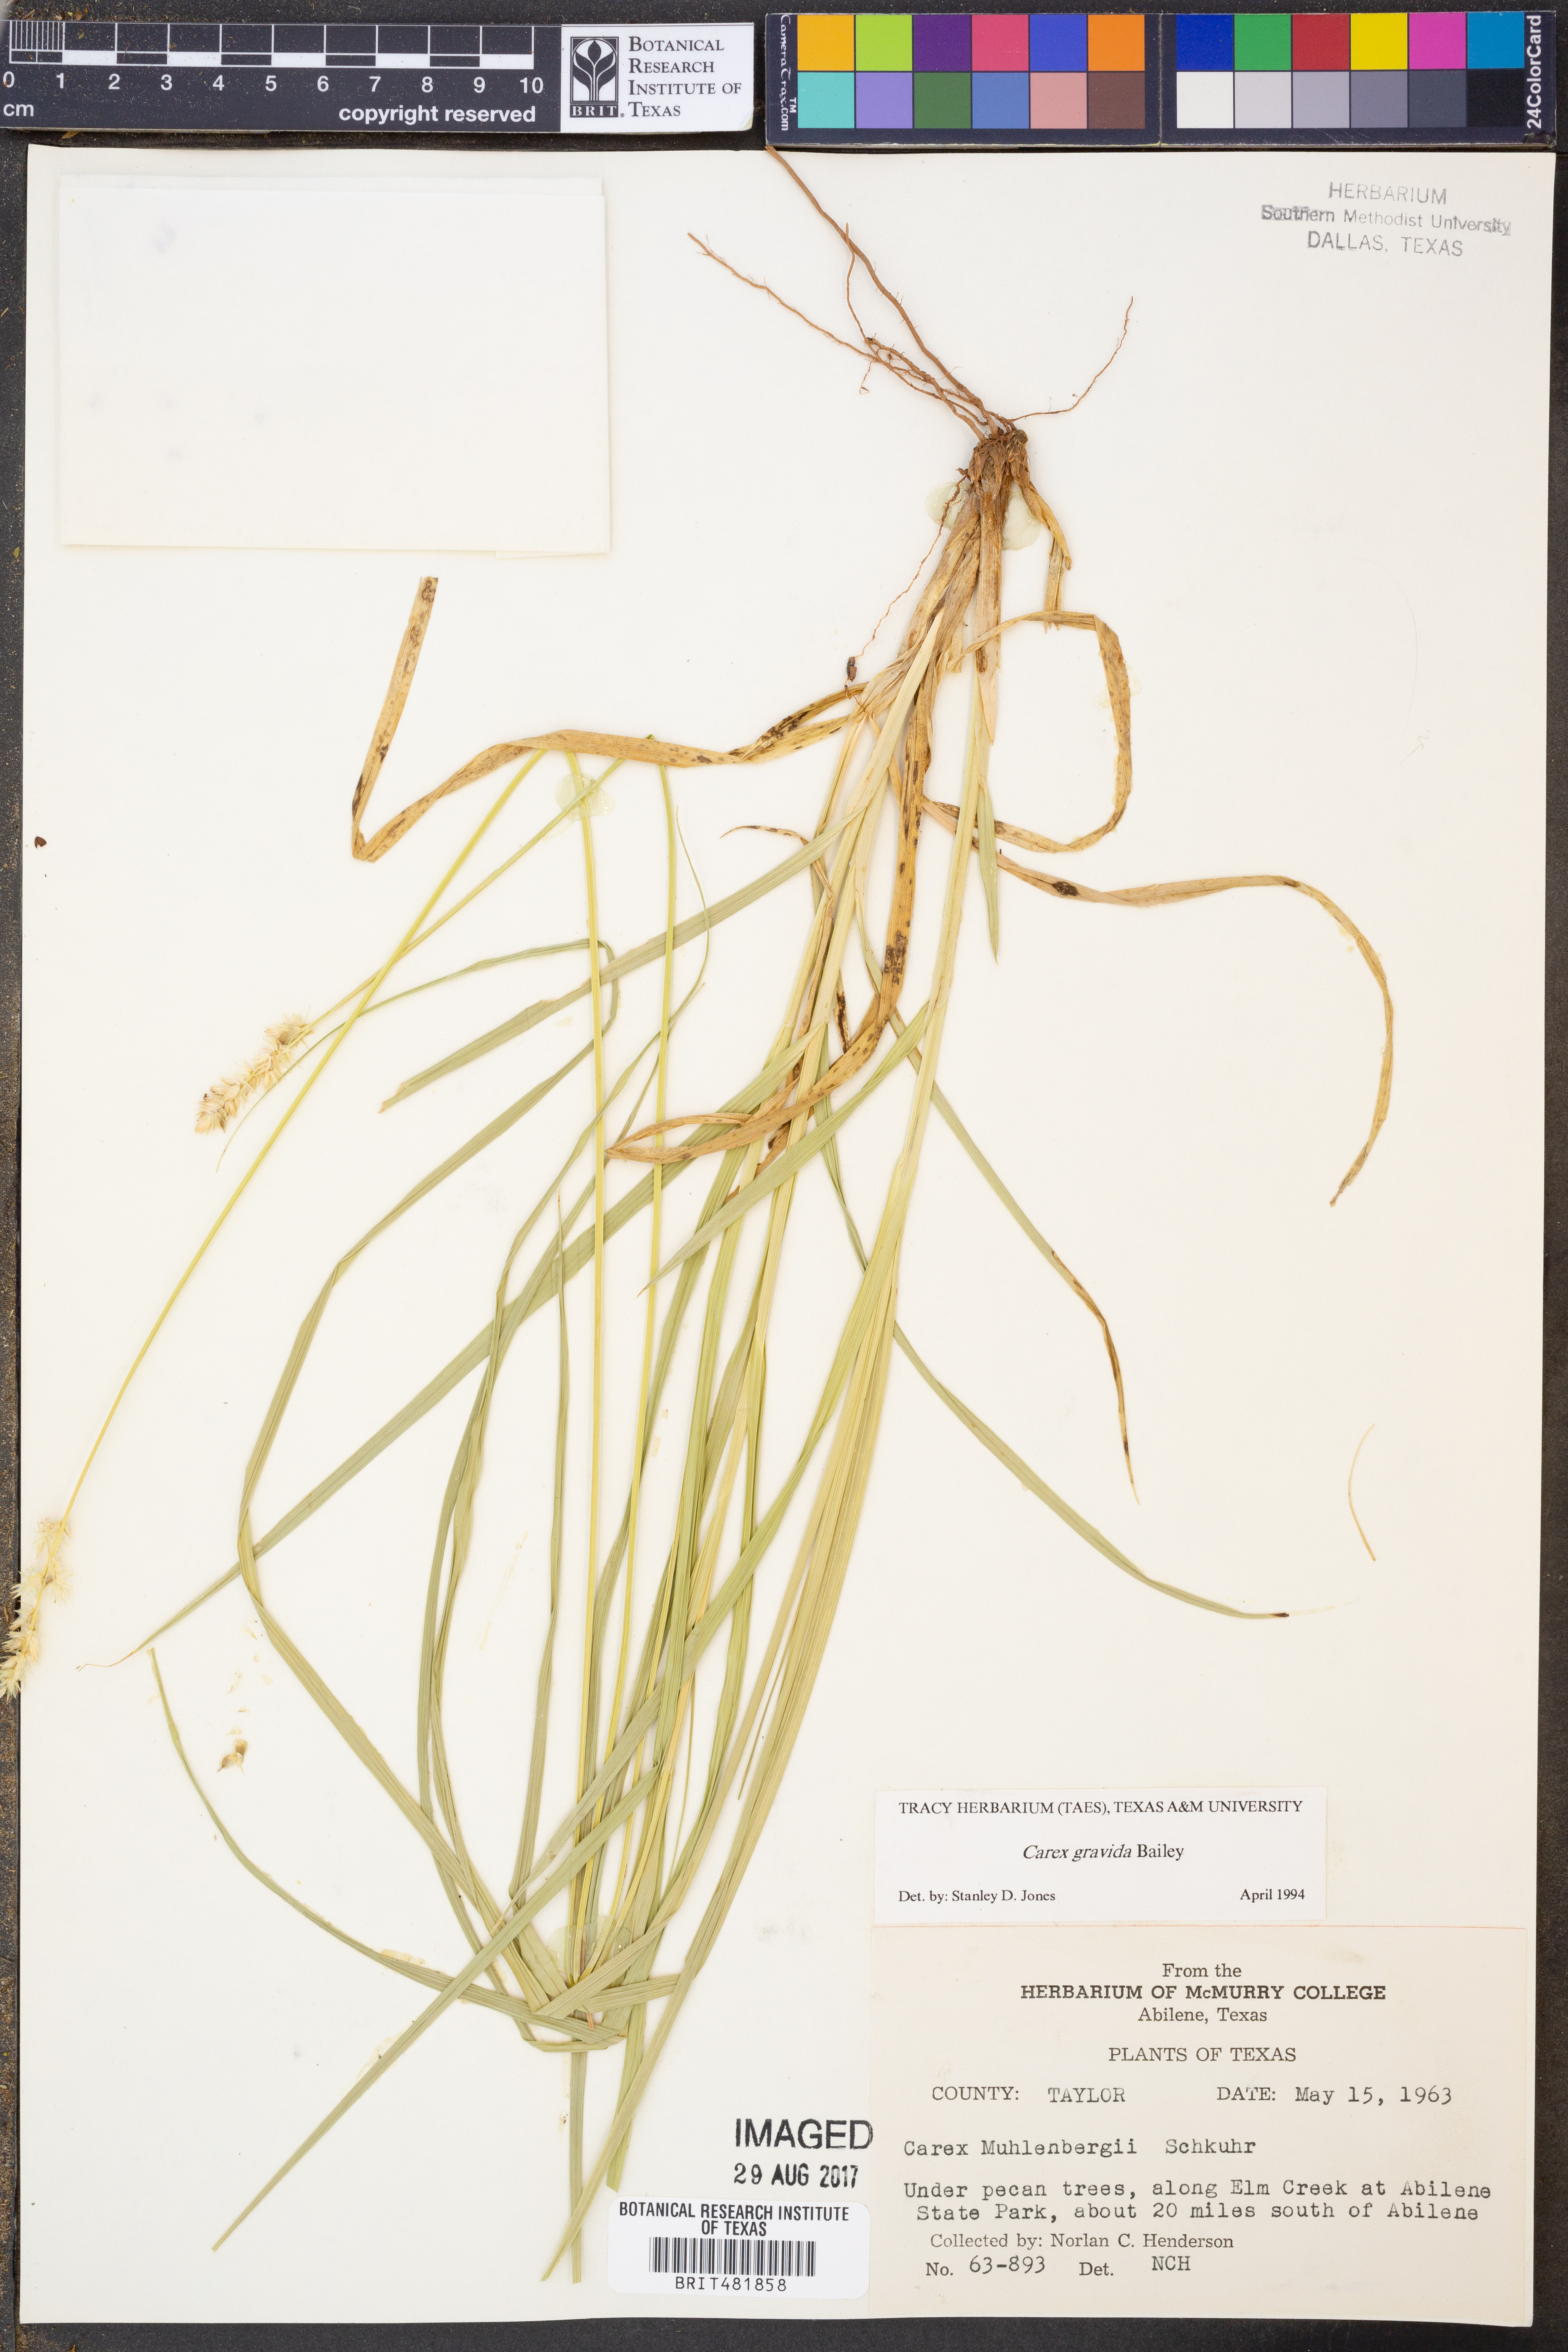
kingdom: Plantae
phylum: Tracheophyta
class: Liliopsida
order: Poales
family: Cyperaceae
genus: Carex
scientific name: Carex gravida
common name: Heavy sedge
